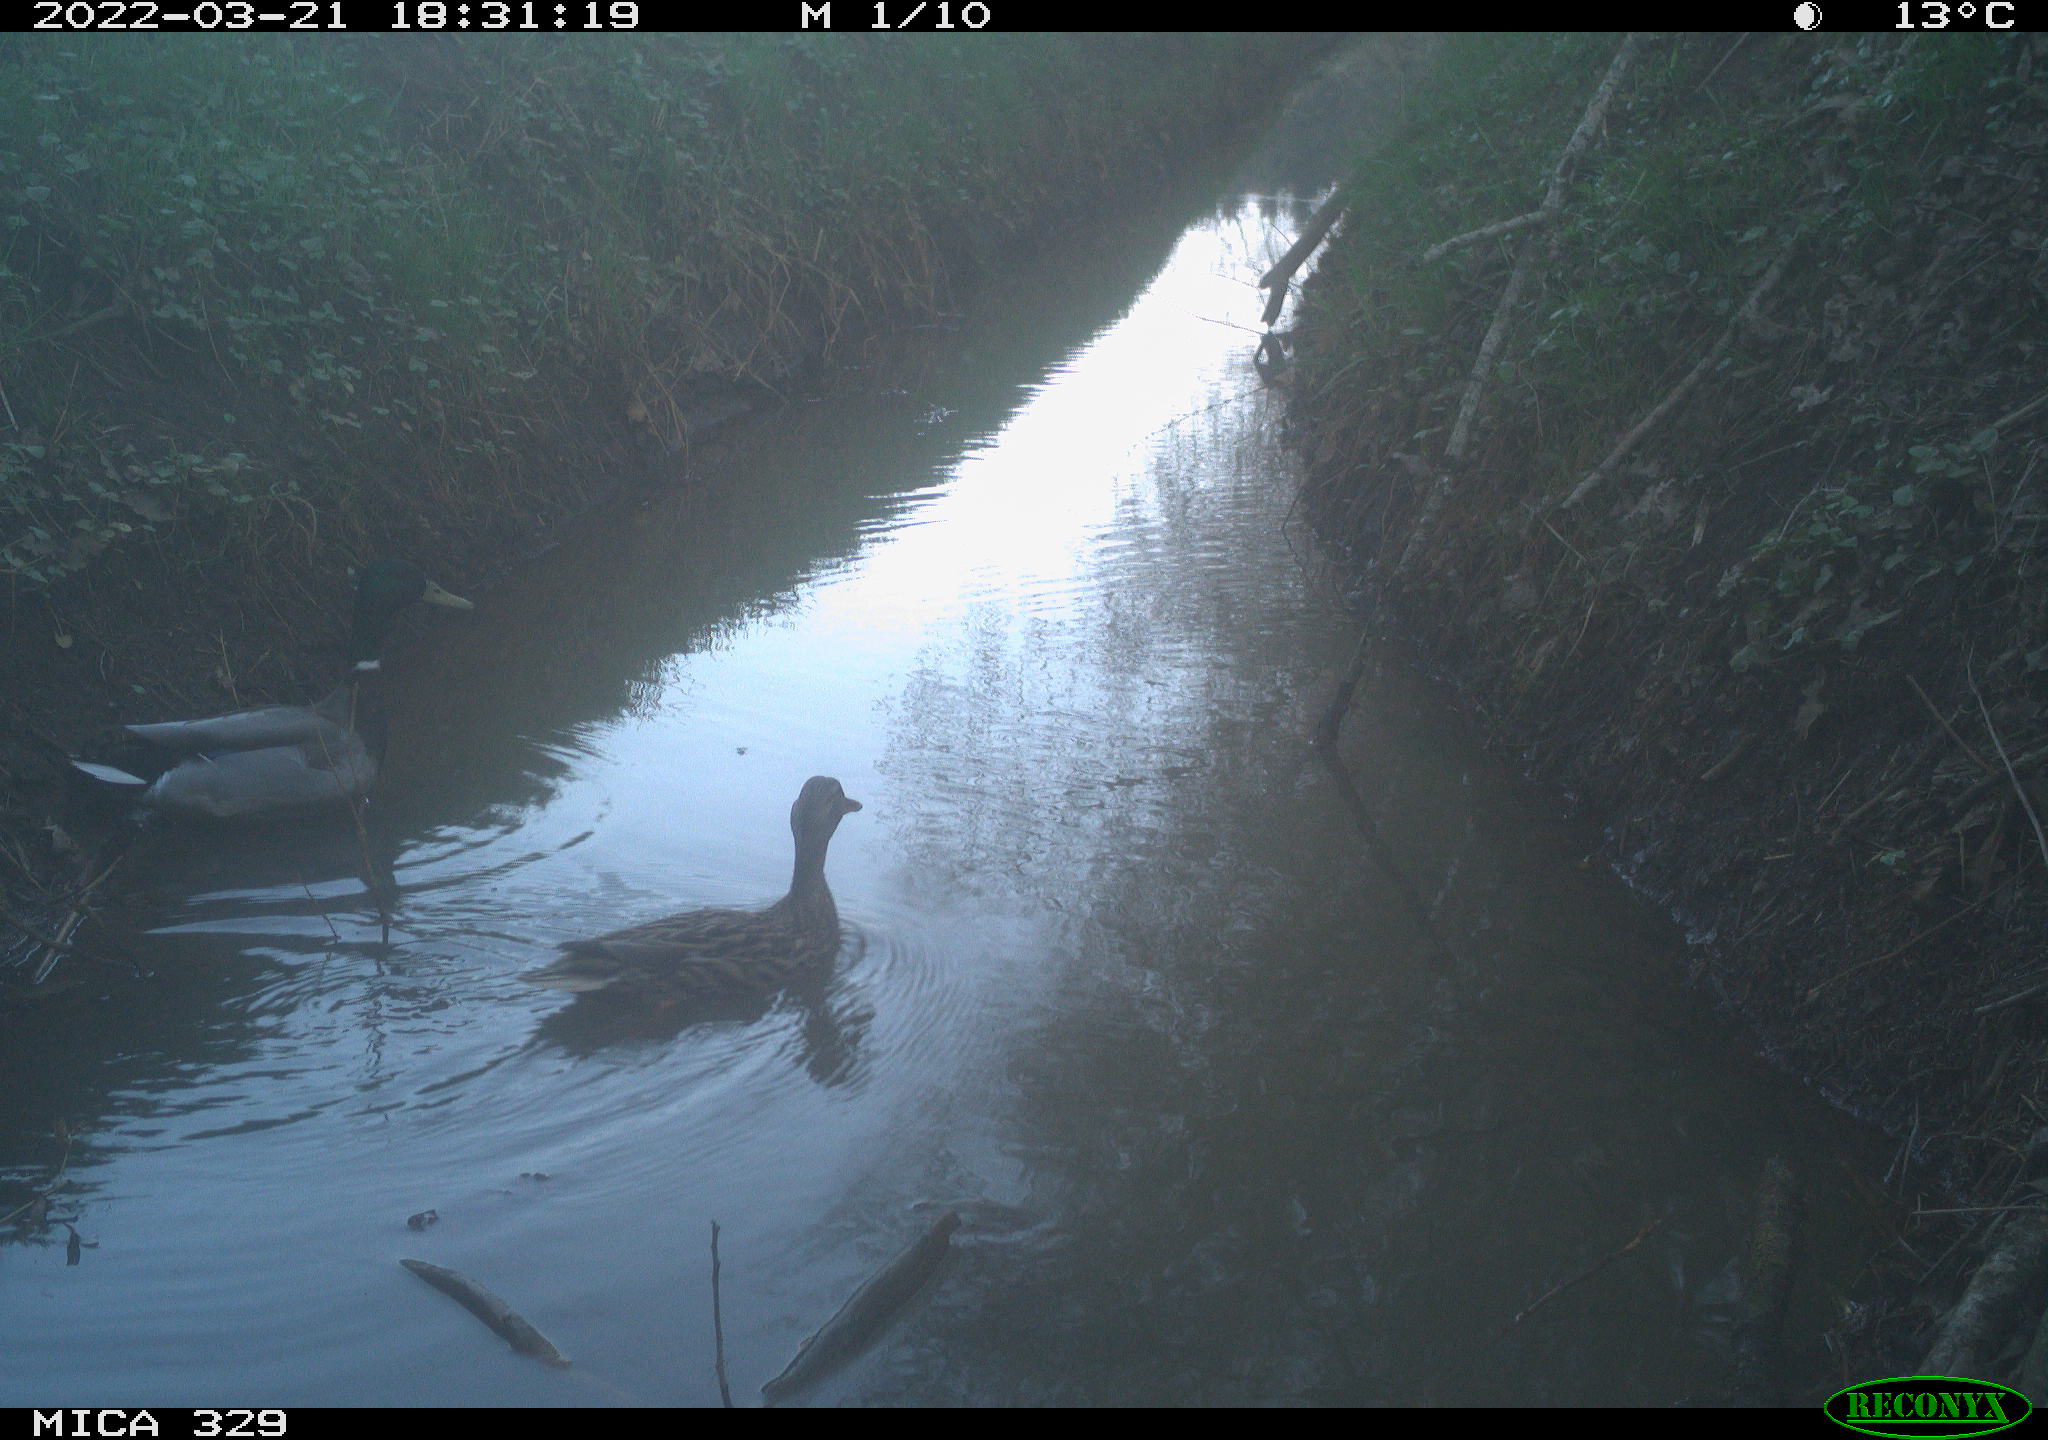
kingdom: Animalia
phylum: Chordata
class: Aves
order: Anseriformes
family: Anatidae
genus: Anas
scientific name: Anas platyrhynchos
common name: Mallard
